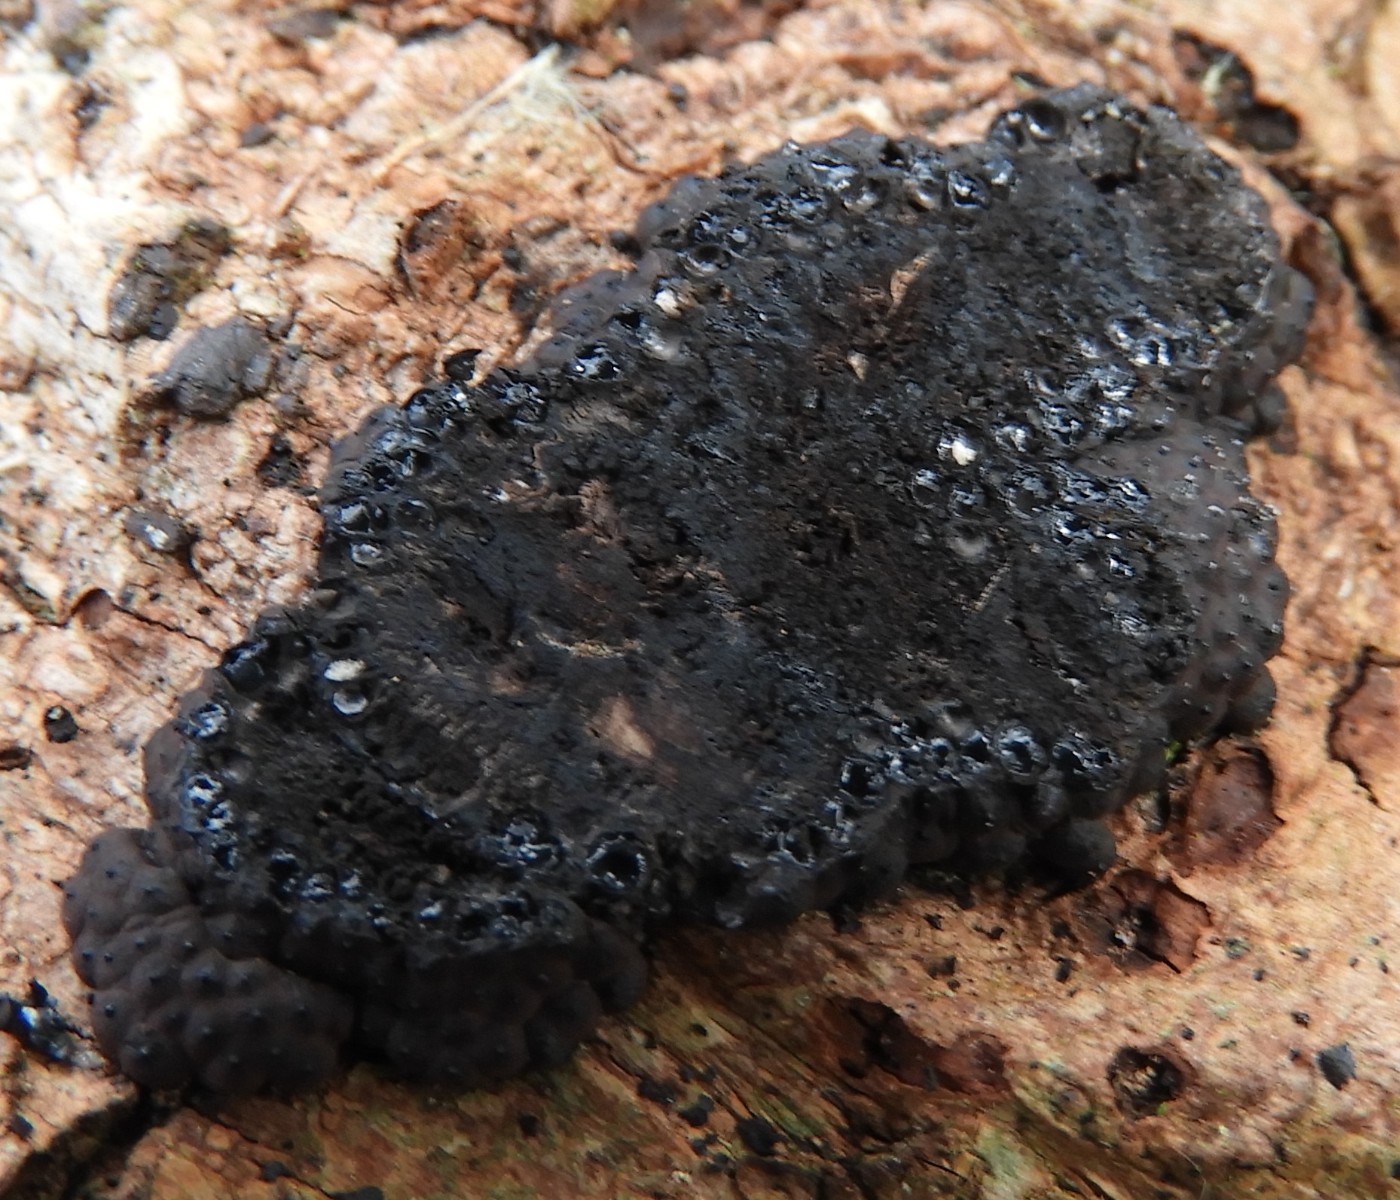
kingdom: Fungi
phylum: Ascomycota
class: Sordariomycetes
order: Xylariales
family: Hypoxylaceae
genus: Jackrogersella
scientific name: Jackrogersella cohaerens
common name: sammenflydende kulbær
